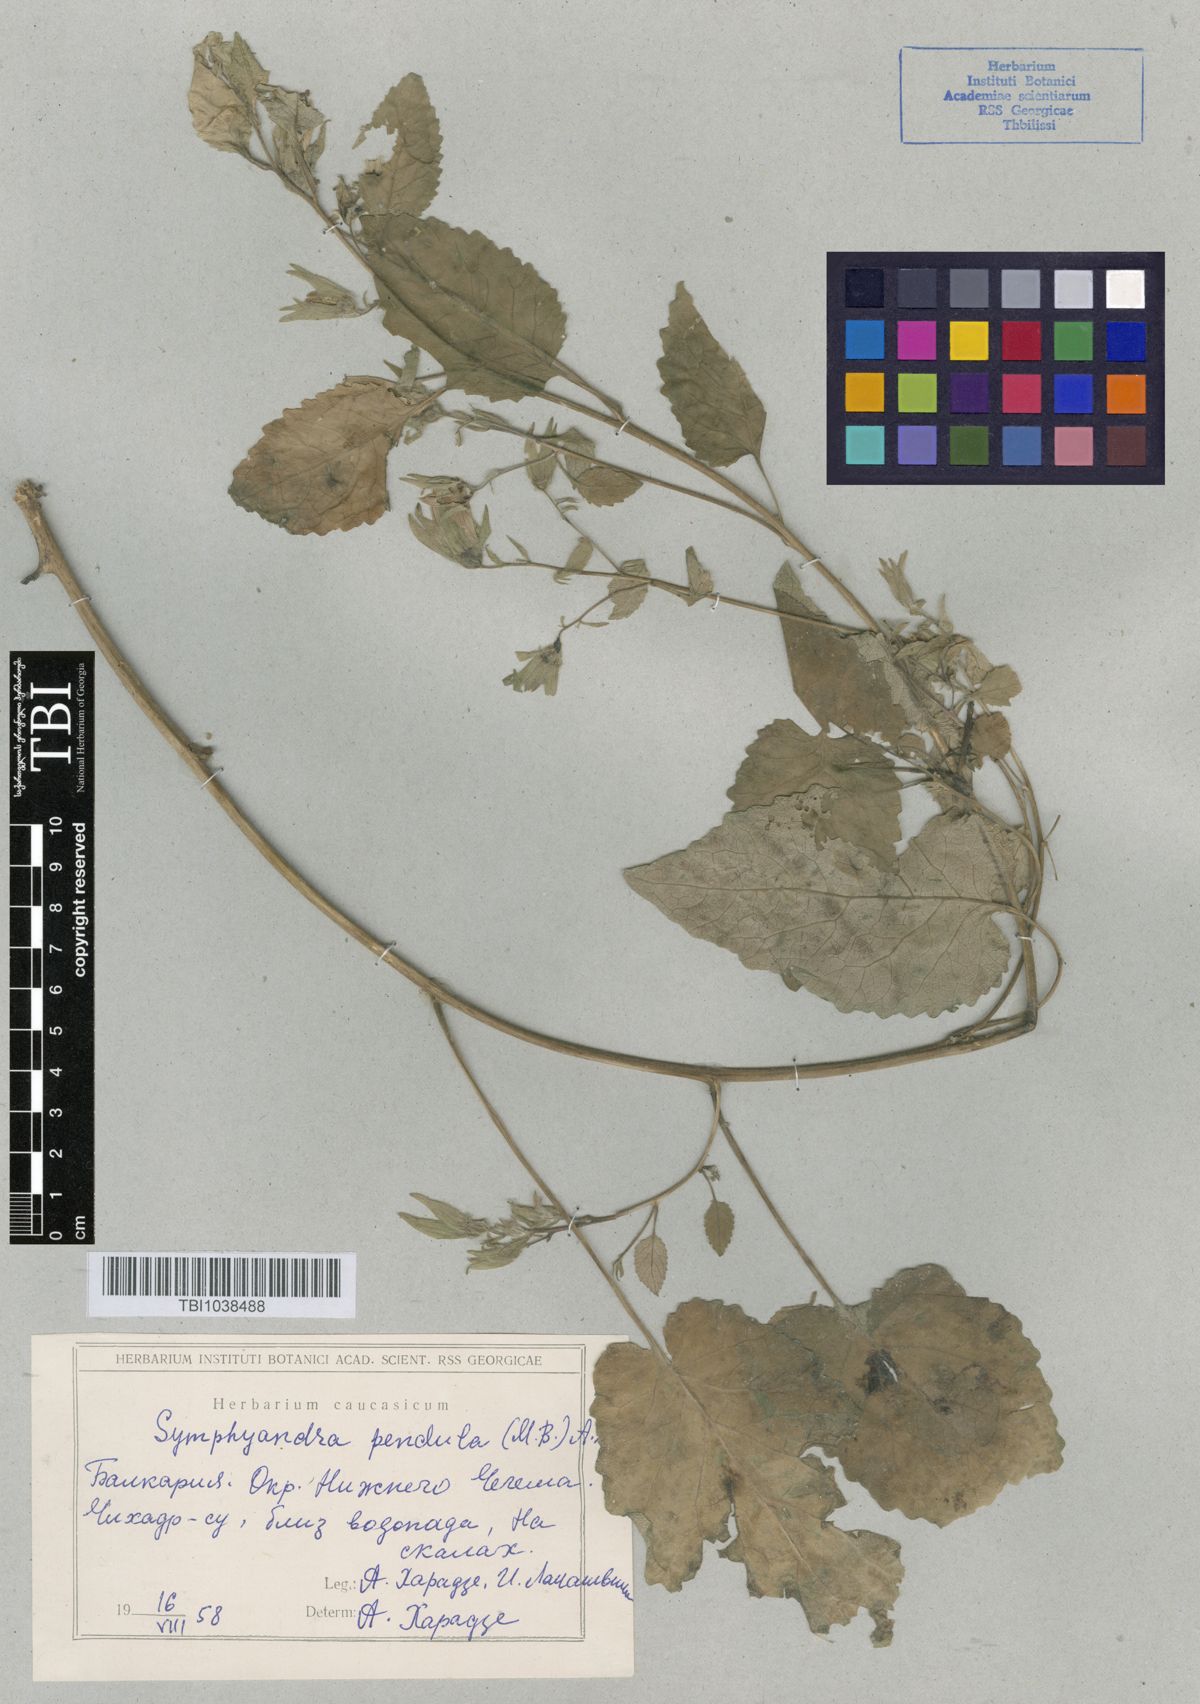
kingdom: Plantae
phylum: Tracheophyta
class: Magnoliopsida
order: Asterales
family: Campanulaceae
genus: Campanula
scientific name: Campanula pendula
